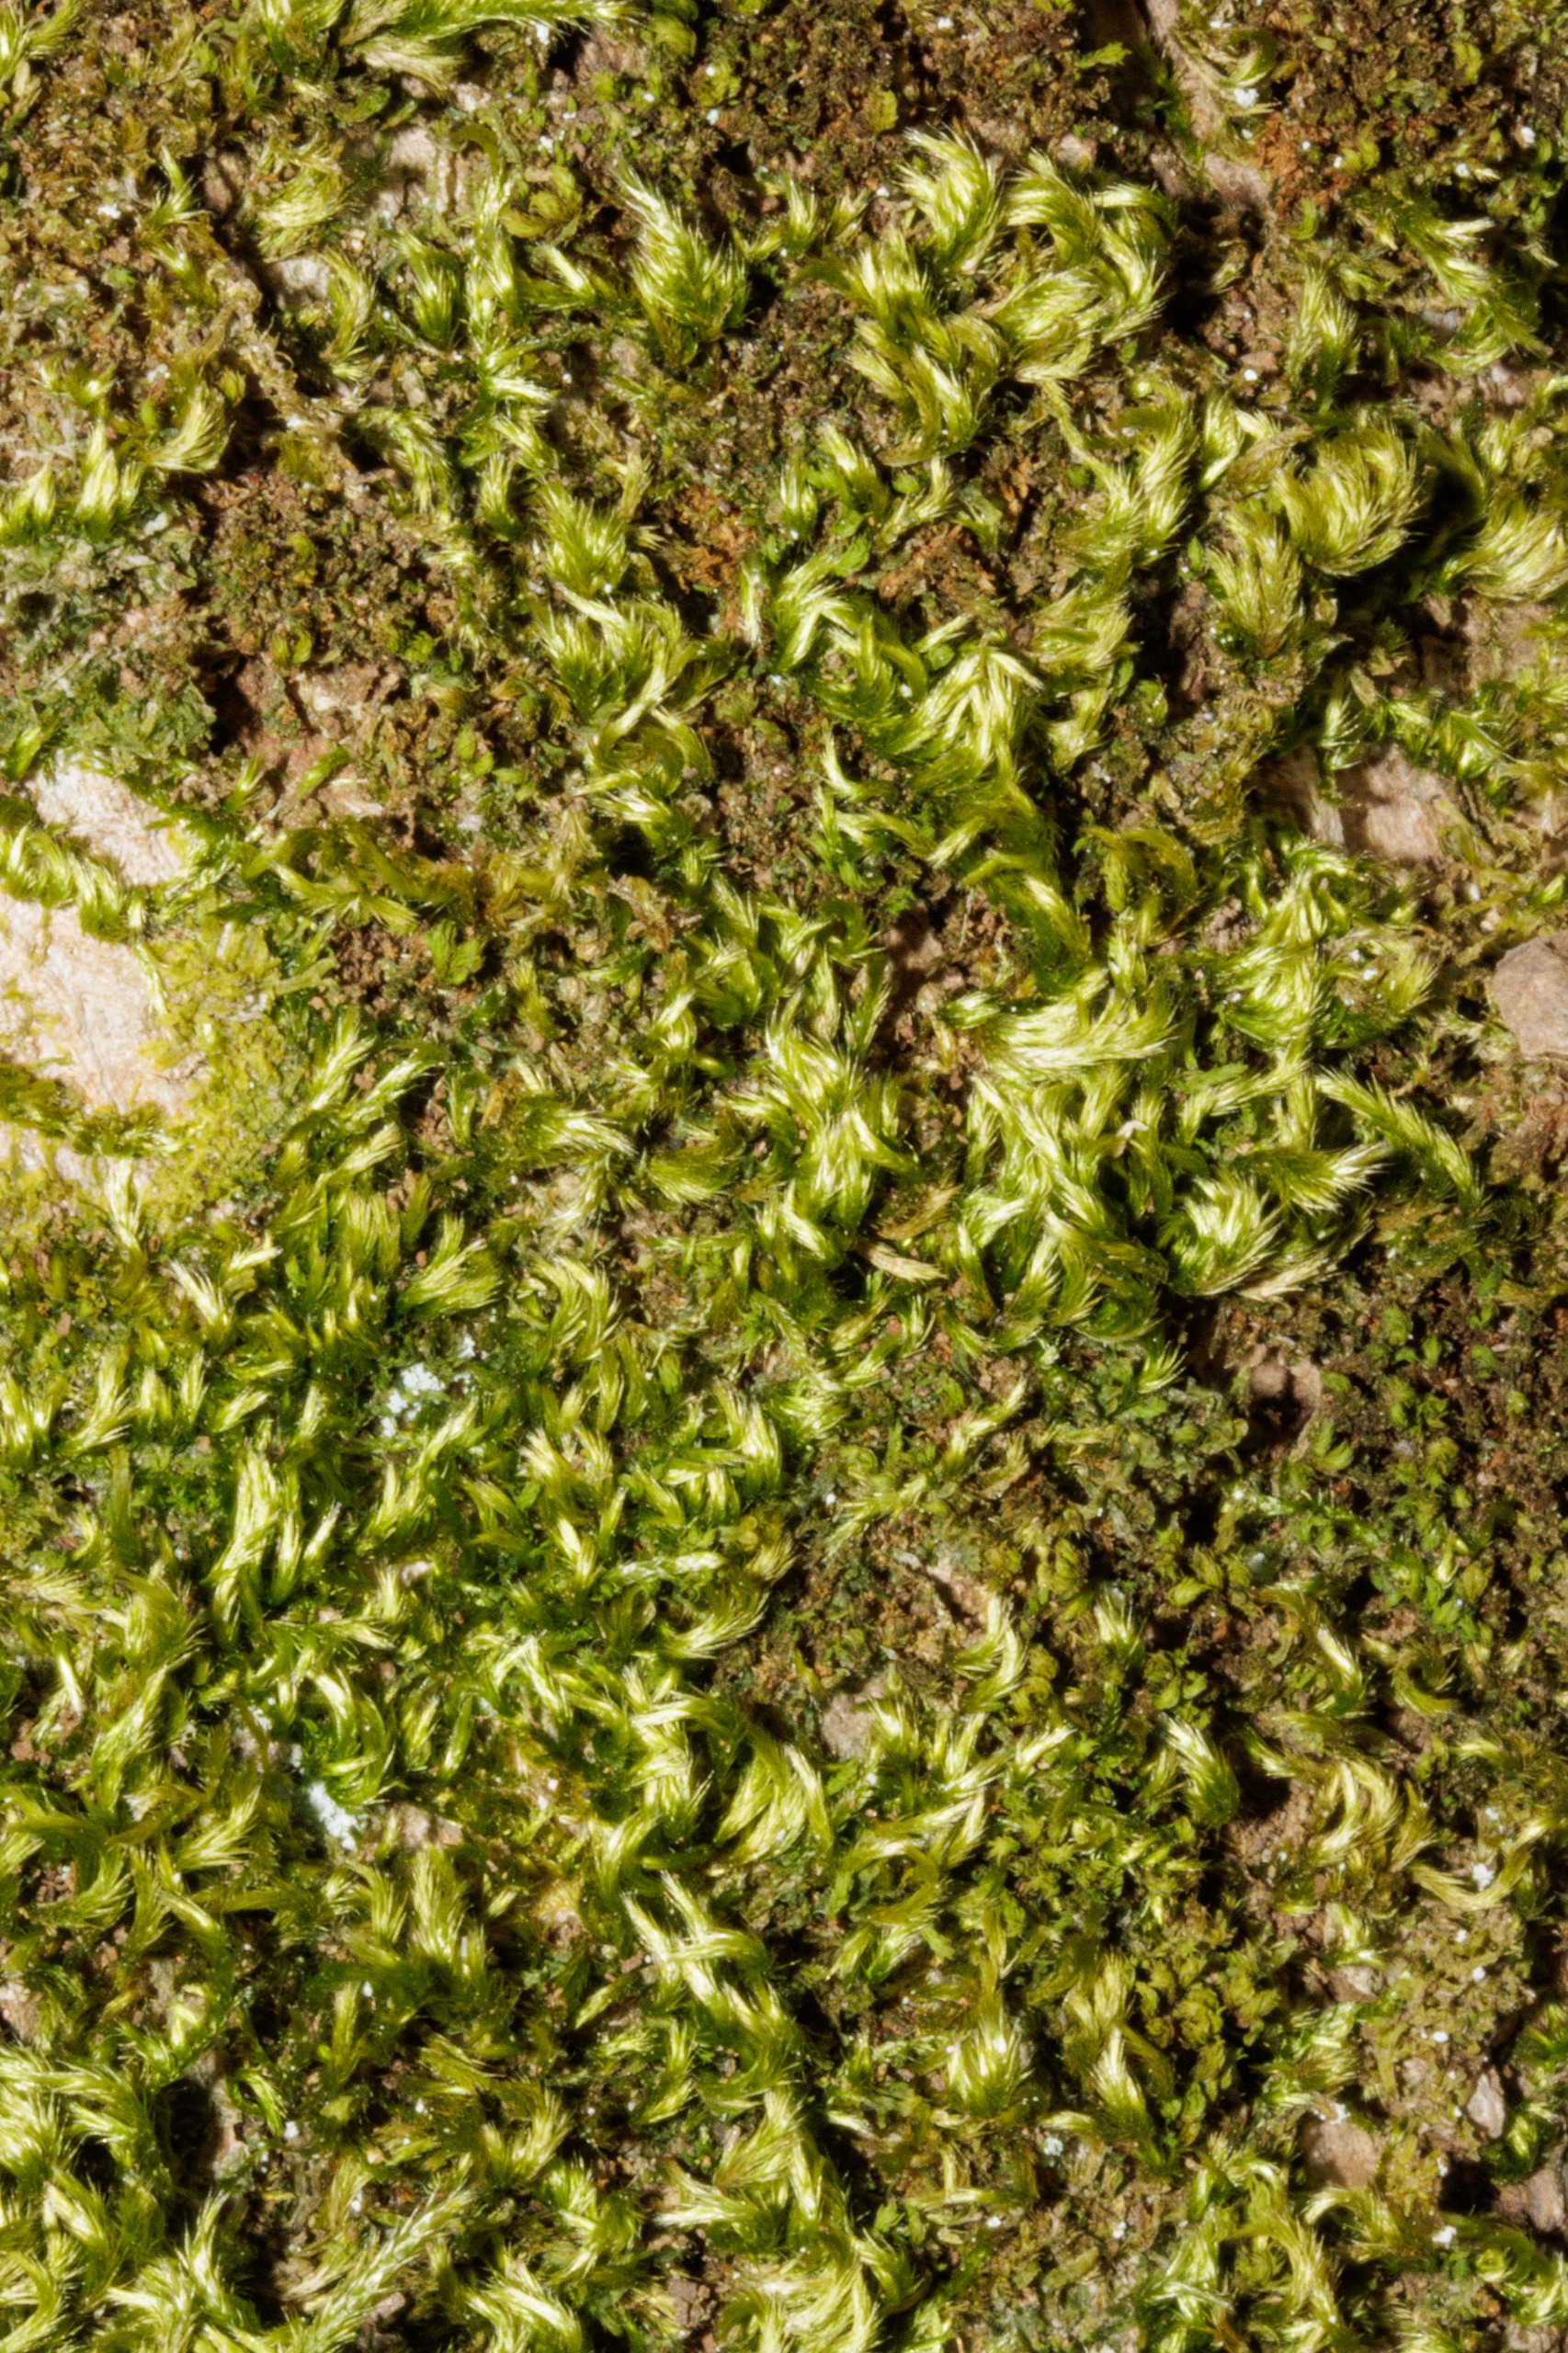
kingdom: Plantae
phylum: Bryophyta
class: Bryopsida
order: Hypnales
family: Brachytheciaceae
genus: Homalothecium
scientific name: Homalothecium sericeum
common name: Krybende silkemos
